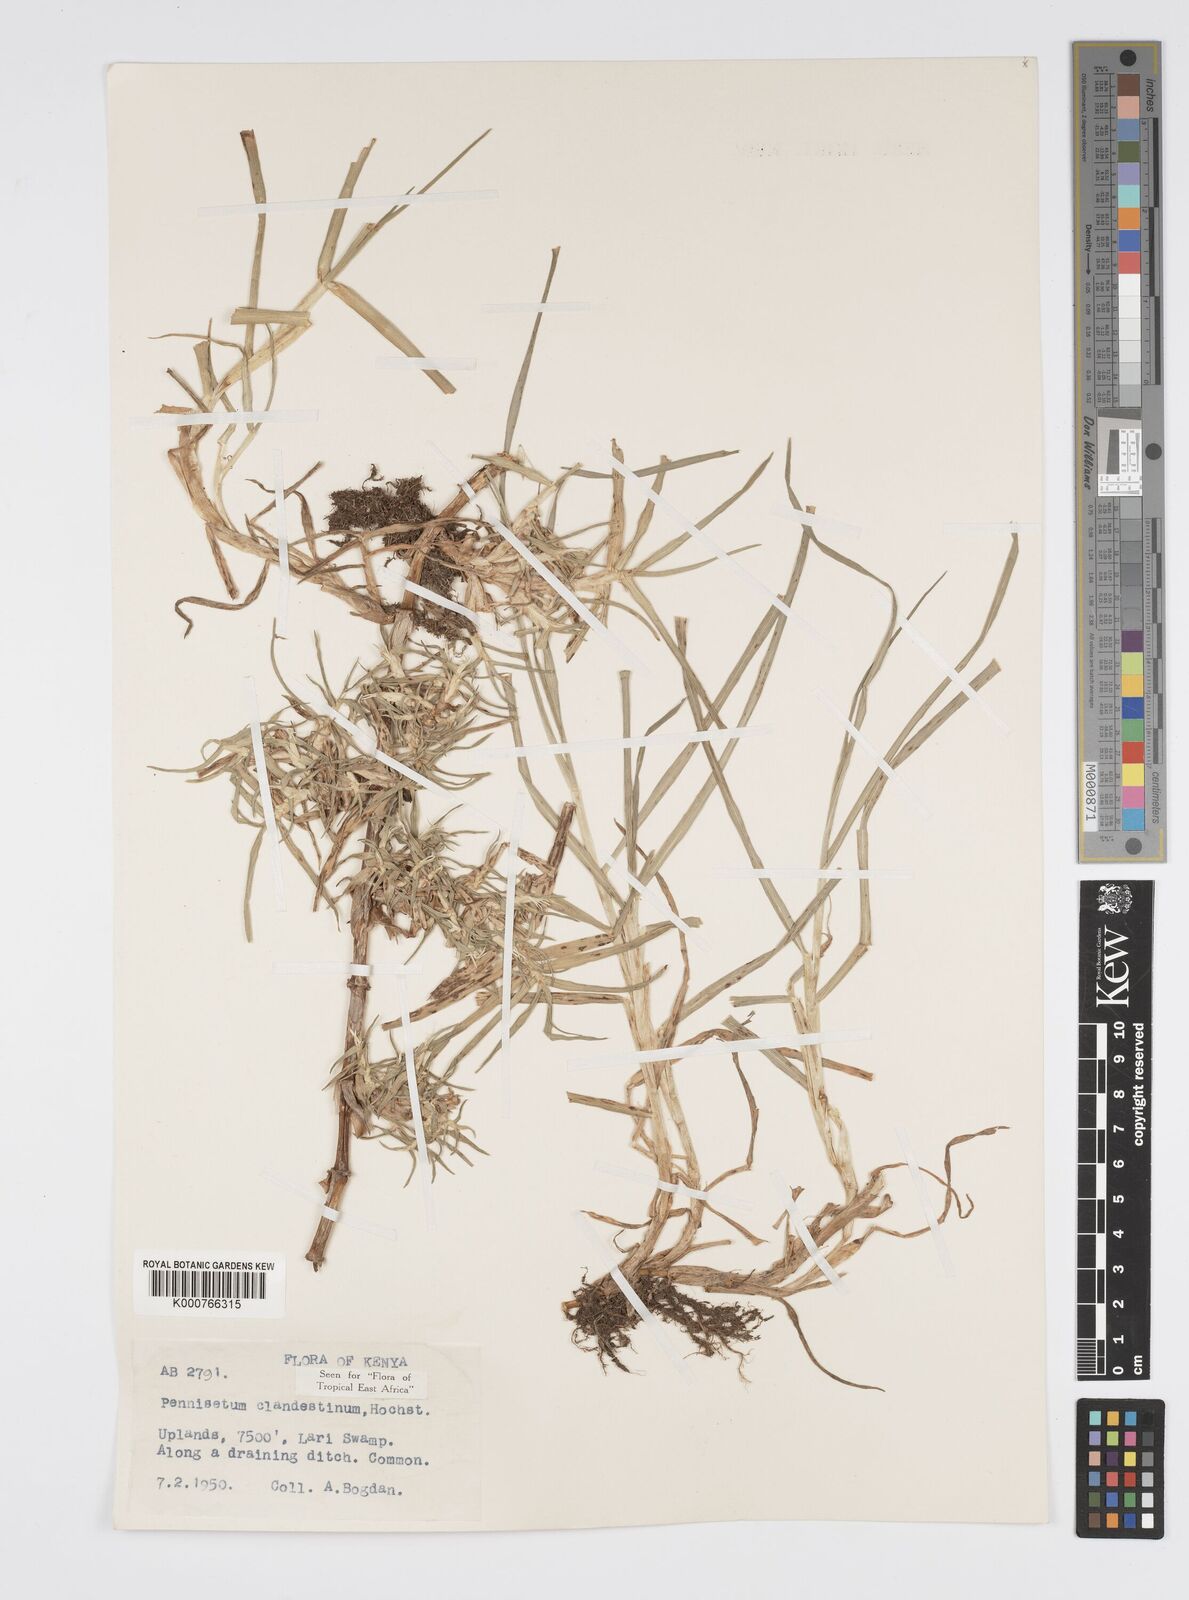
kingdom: Plantae
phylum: Tracheophyta
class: Liliopsida
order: Poales
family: Poaceae
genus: Cenchrus
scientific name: Cenchrus clandestinus
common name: Kikuyugrass
